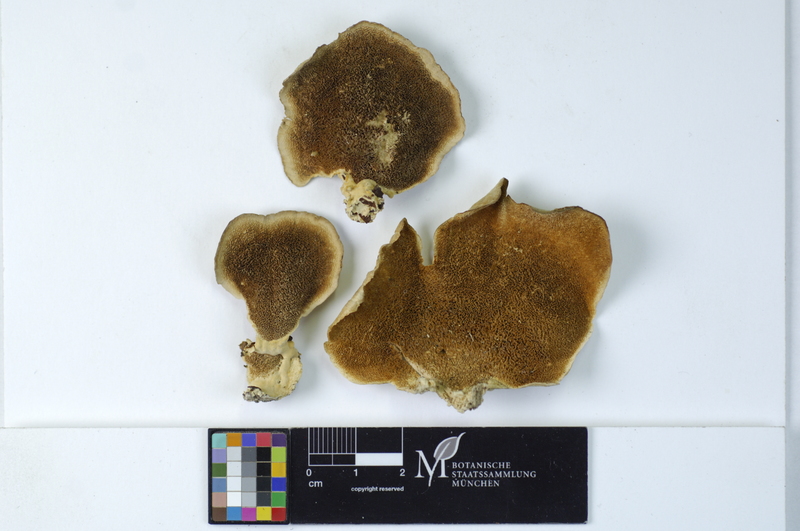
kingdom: Plantae
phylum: Tracheophyta
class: Magnoliopsida
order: Fagales
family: Betulaceae
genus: Betula
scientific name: Betula
